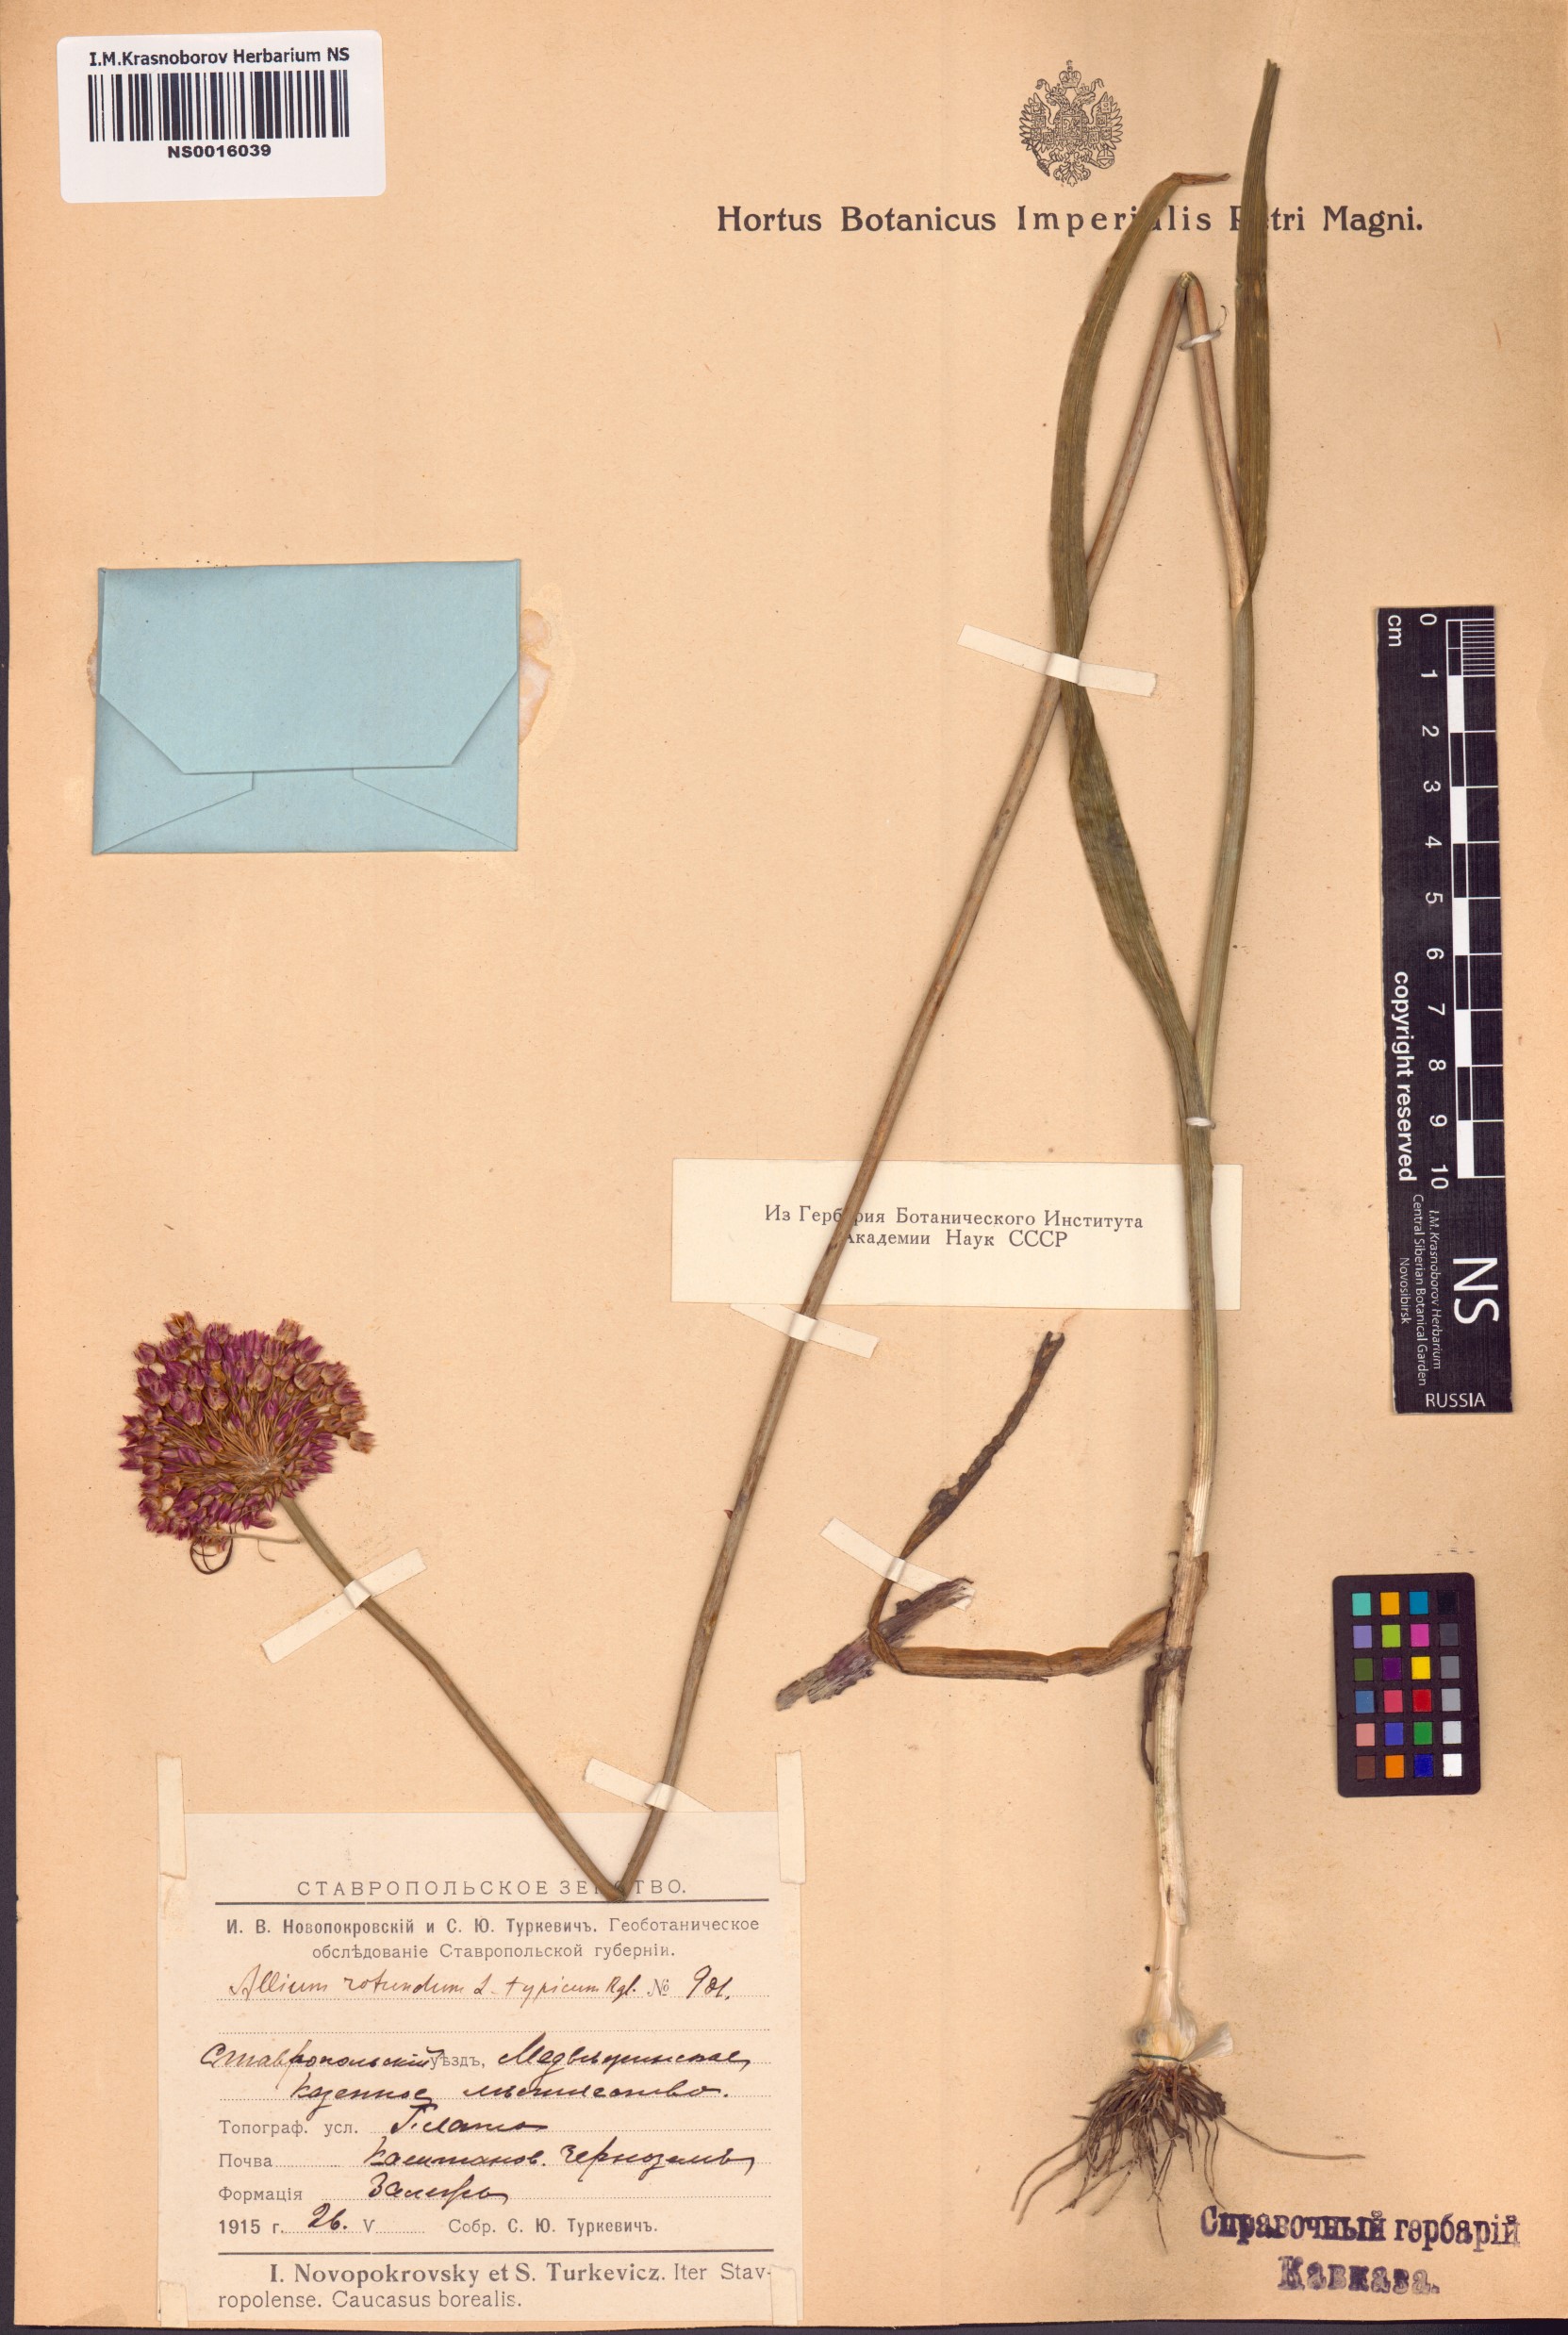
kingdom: Plantae
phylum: Tracheophyta
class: Liliopsida
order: Asparagales
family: Amaryllidaceae
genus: Allium
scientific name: Allium rotundum
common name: Sand leek
